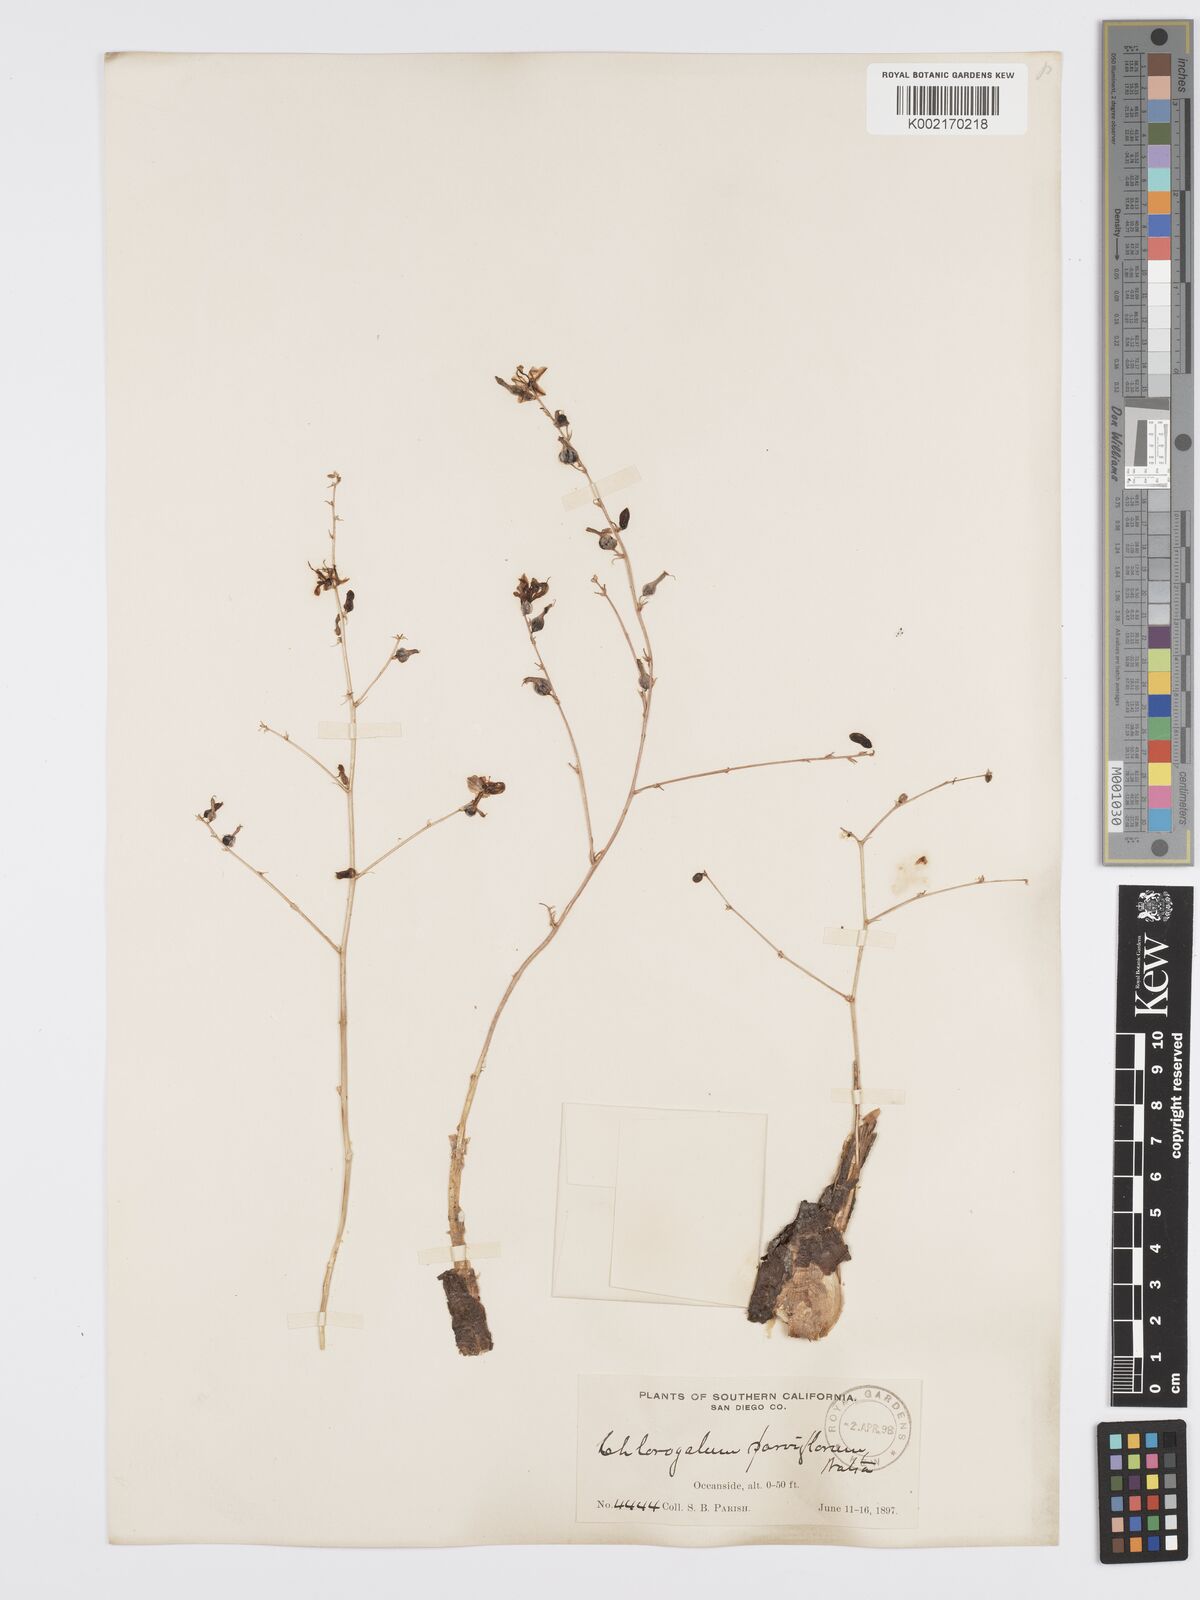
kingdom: Plantae
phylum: Tracheophyta
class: Liliopsida
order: Asparagales
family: Asparagaceae
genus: Hooveria
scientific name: Hooveria parviflora
